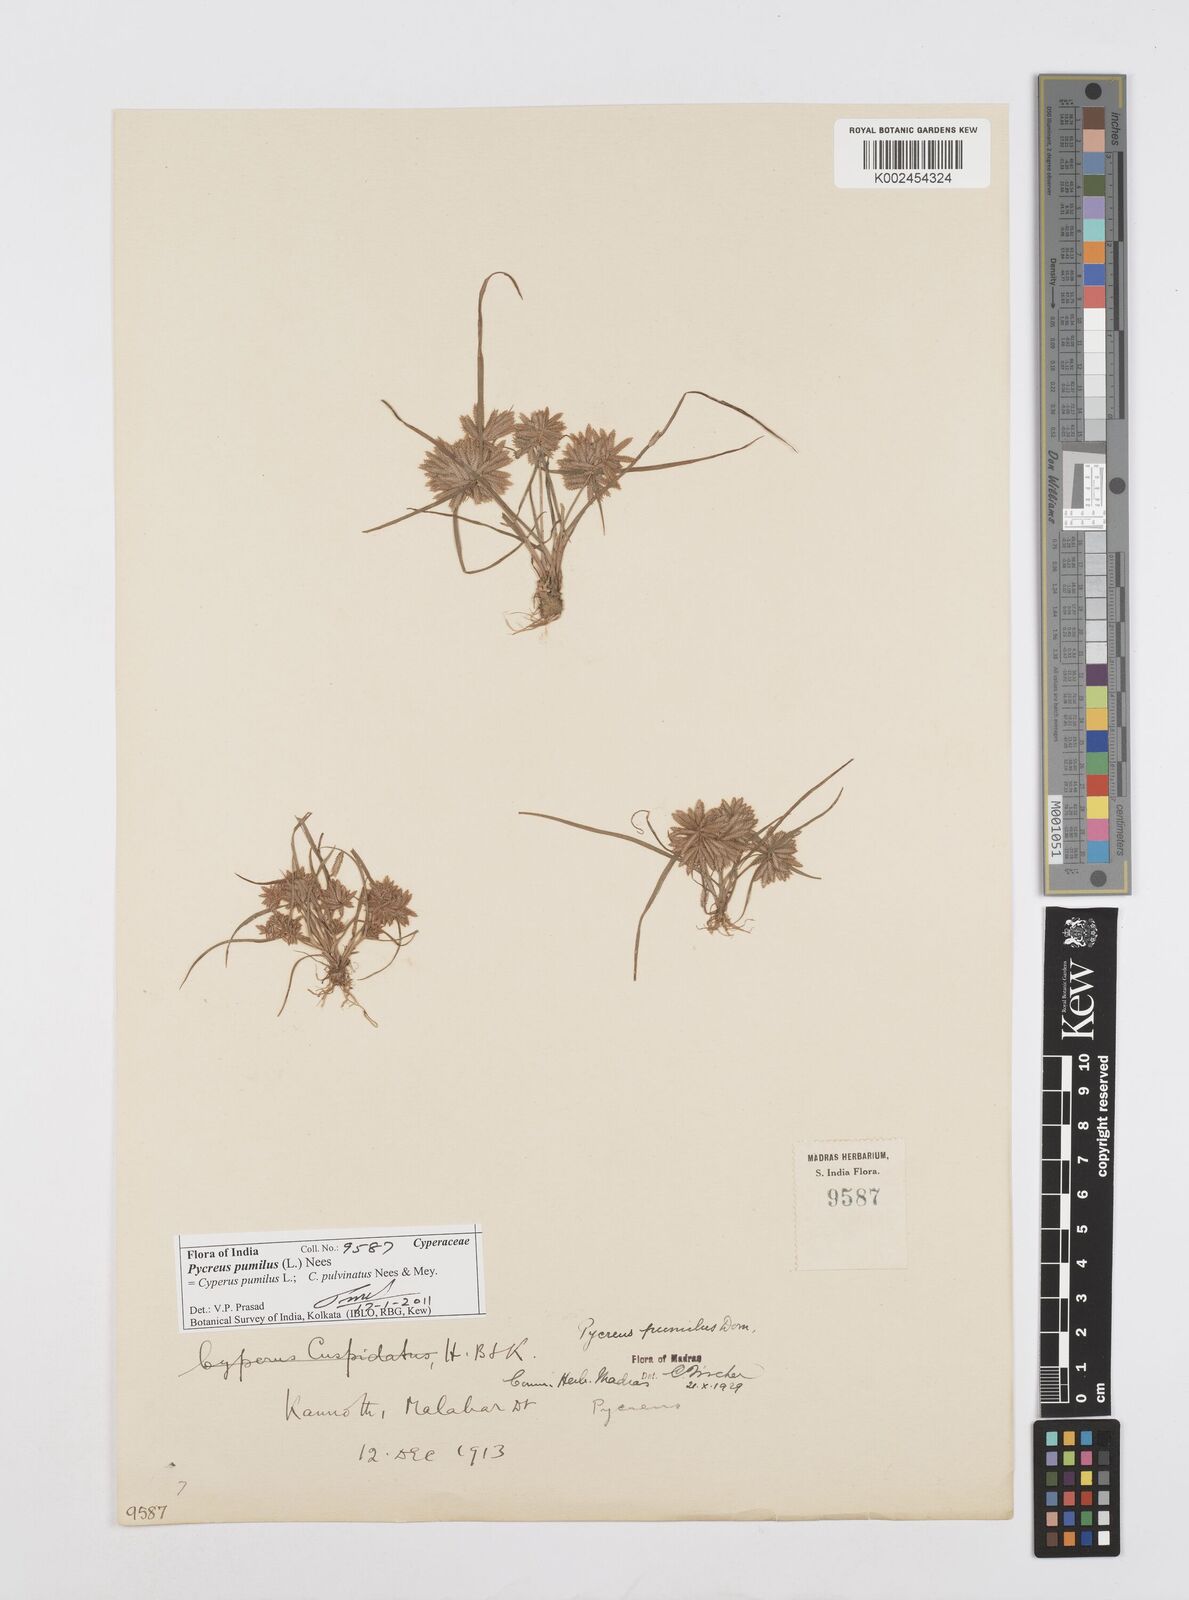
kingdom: Plantae
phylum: Tracheophyta
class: Liliopsida
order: Poales
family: Cyperaceae
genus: Cyperus
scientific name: Cyperus pumilus
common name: Low flatsedge
